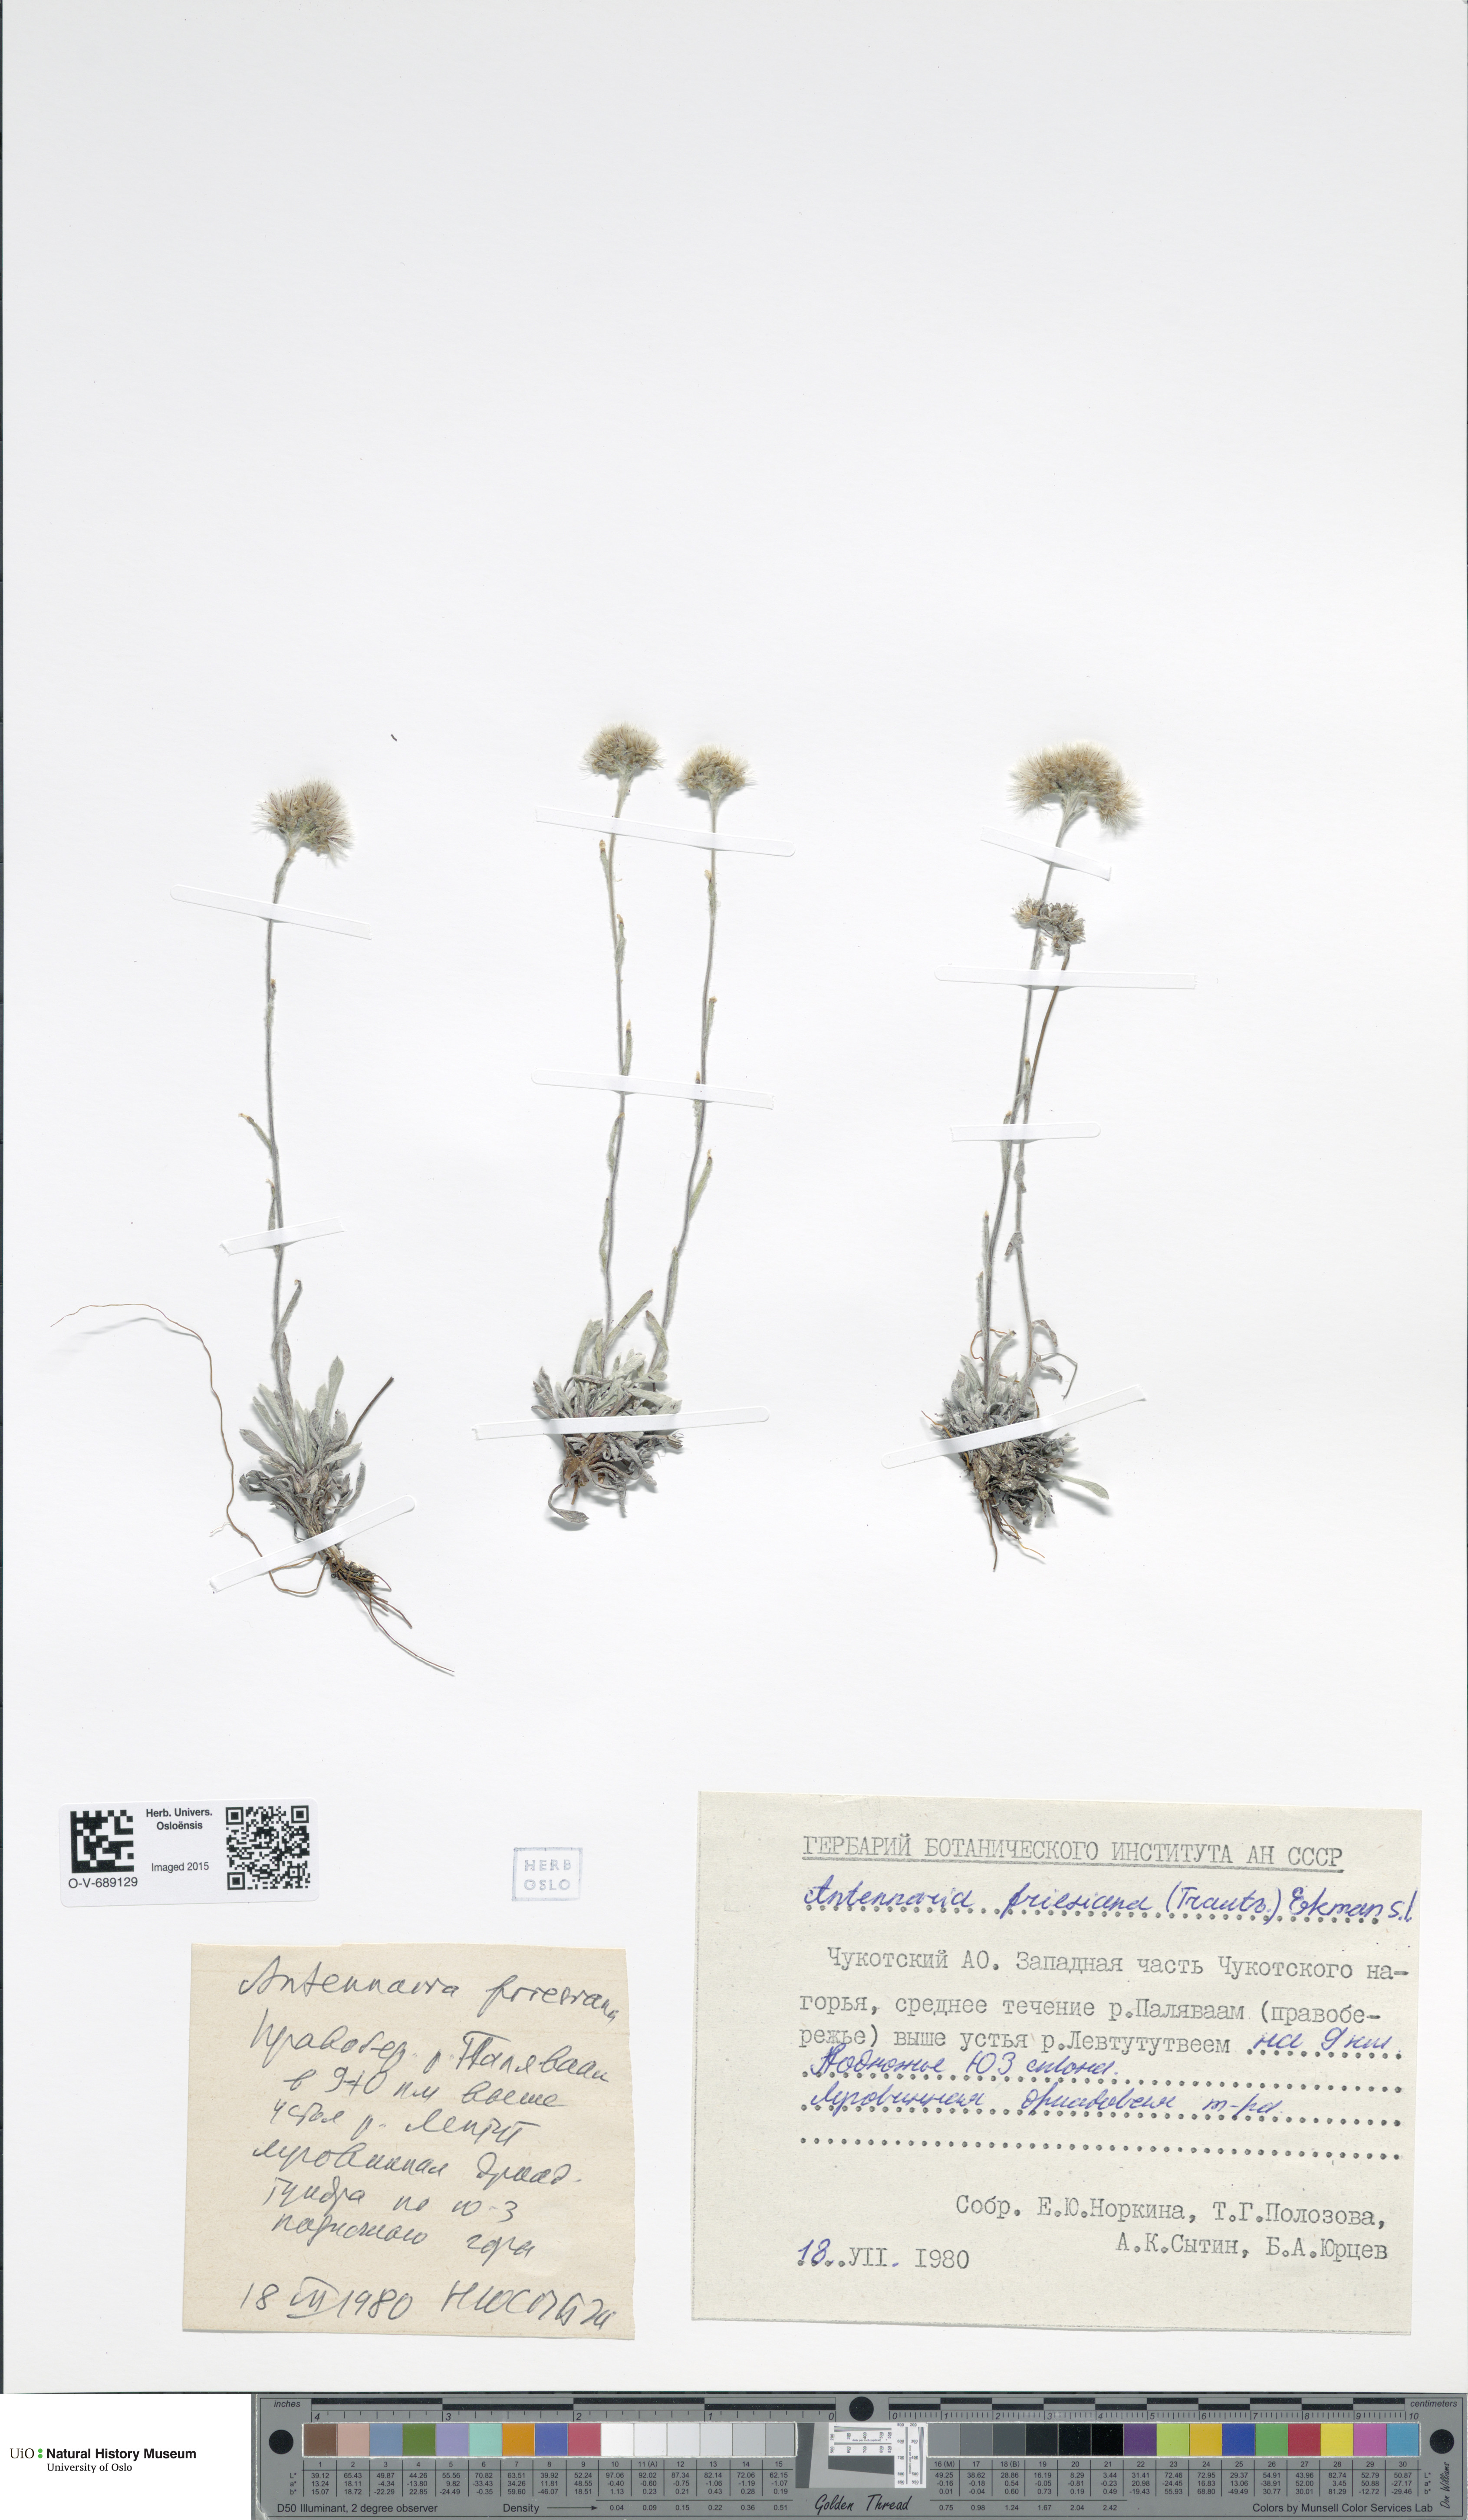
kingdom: Plantae
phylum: Tracheophyta
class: Magnoliopsida
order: Asterales
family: Asteraceae
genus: Antennaria
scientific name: Antennaria friesiana
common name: Fries' pussytoes
